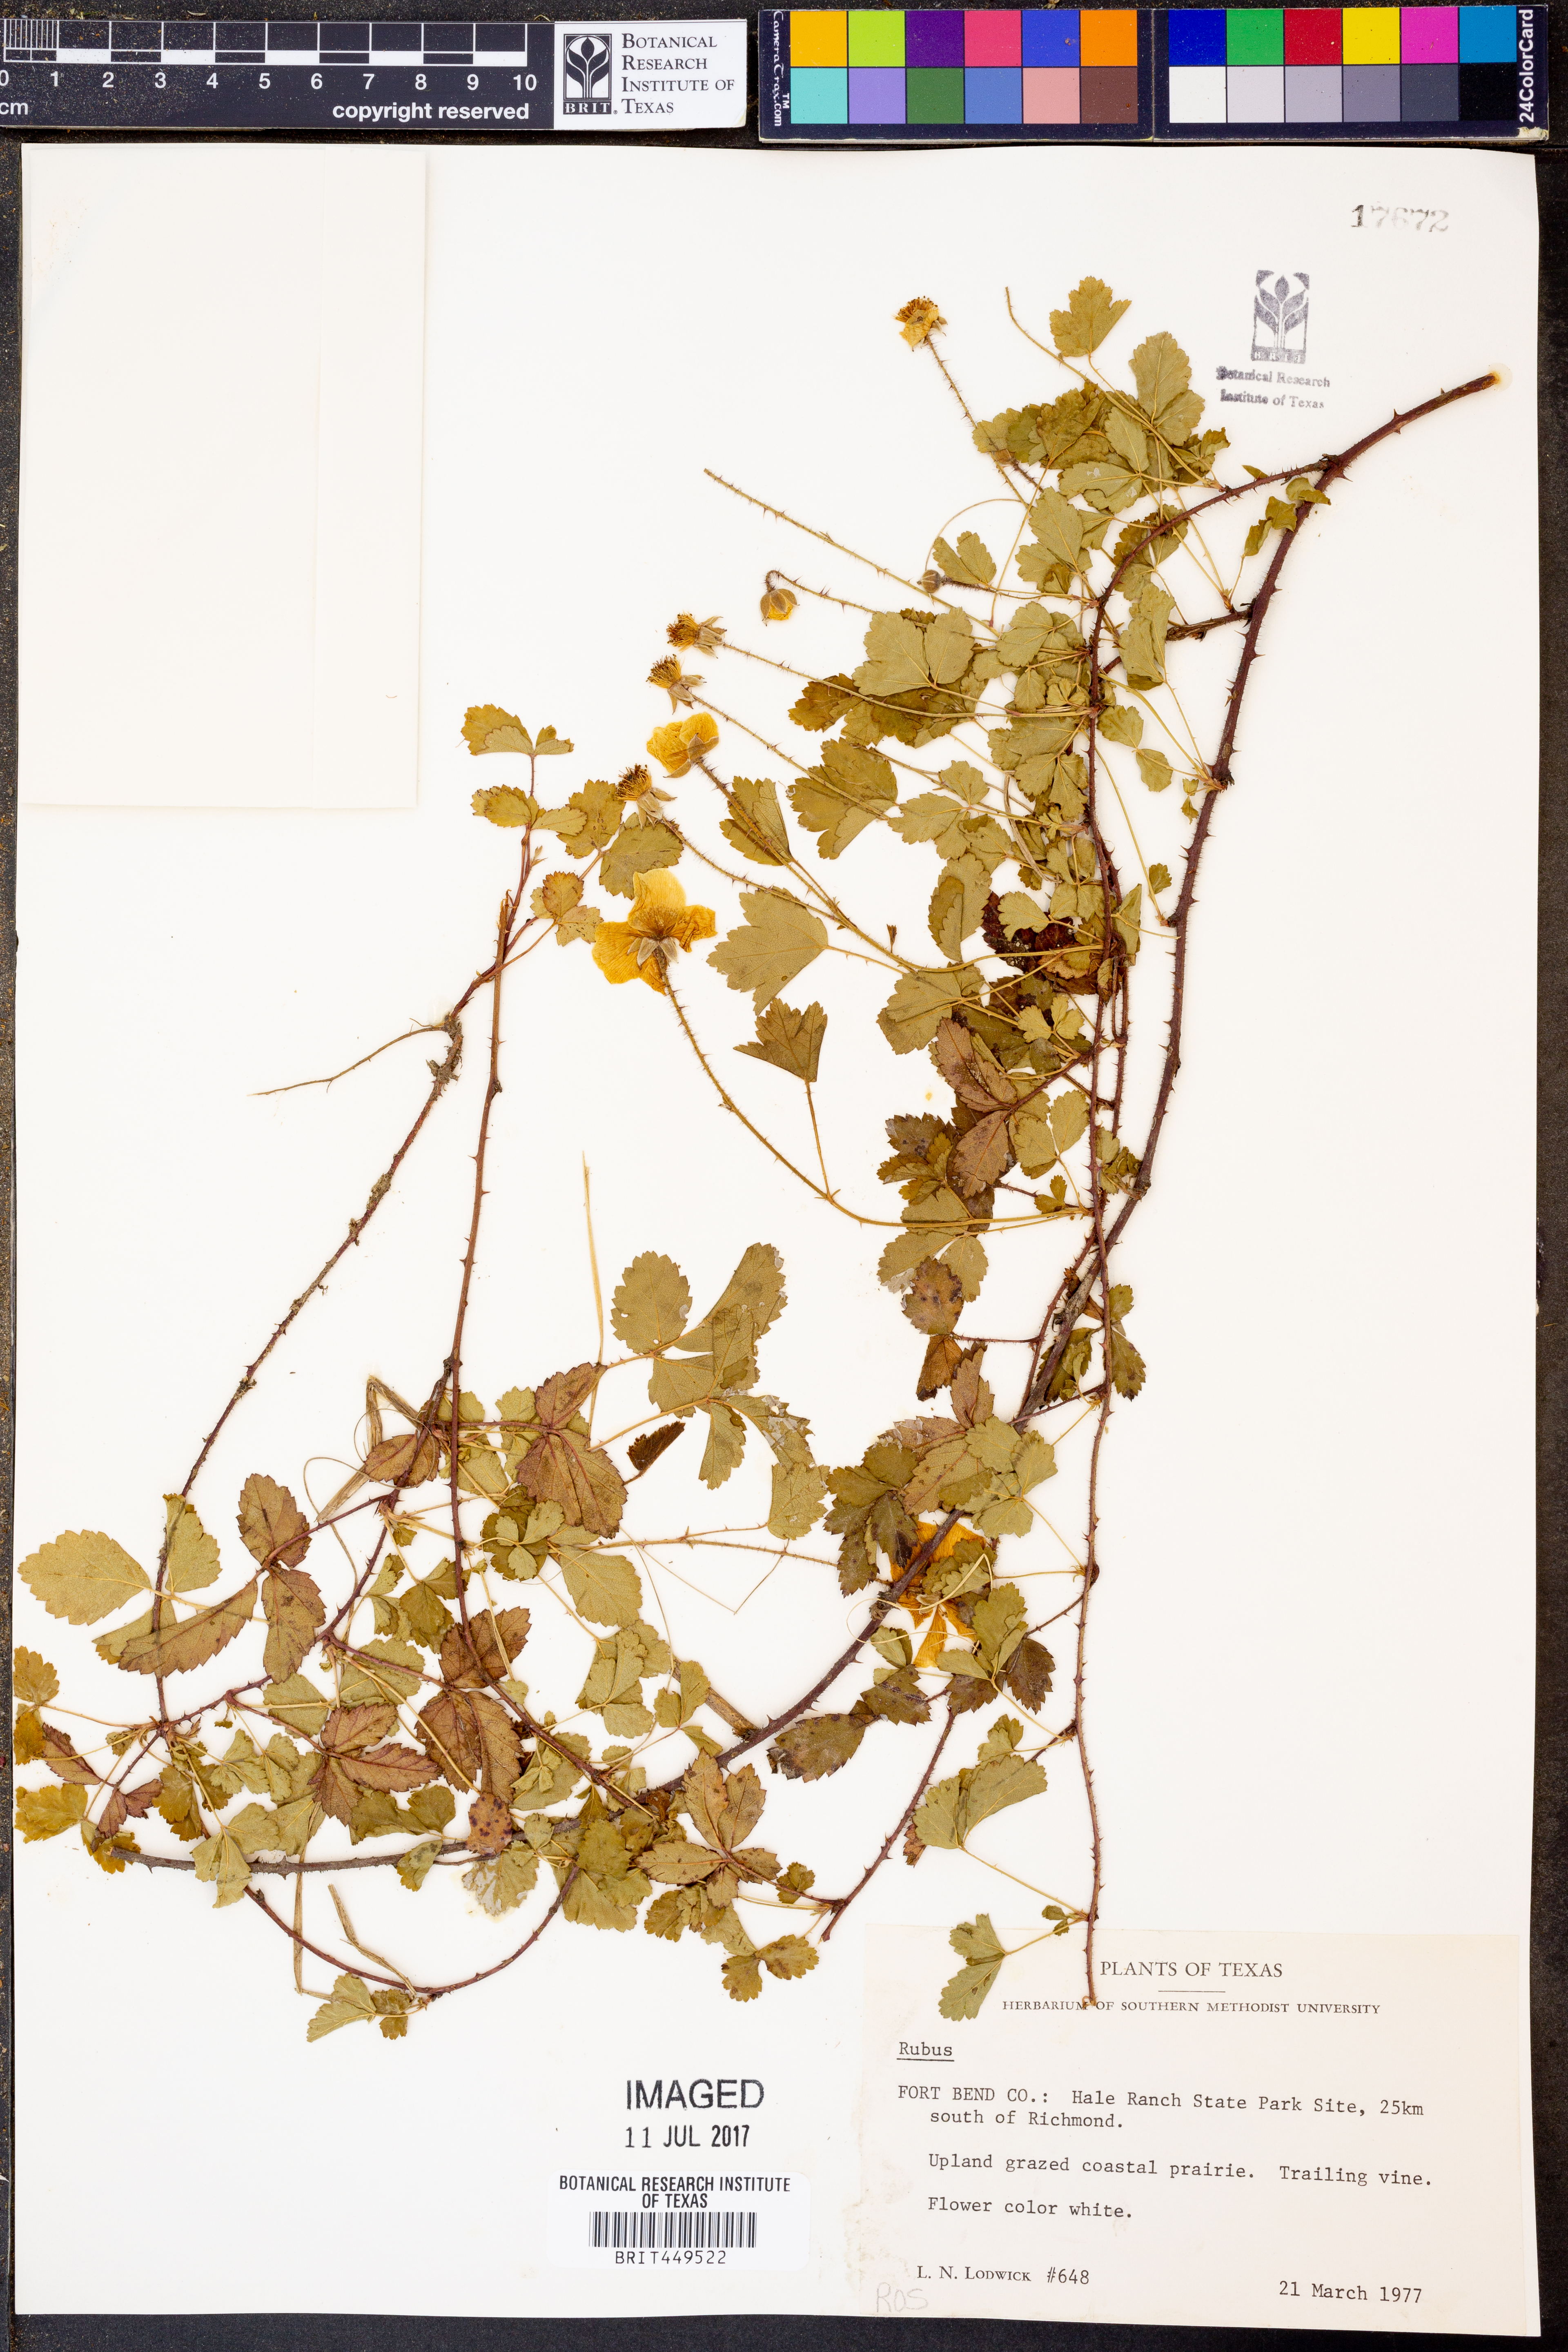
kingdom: Plantae
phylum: Tracheophyta
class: Magnoliopsida
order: Rosales
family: Rosaceae
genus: Rubus
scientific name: Rubus
